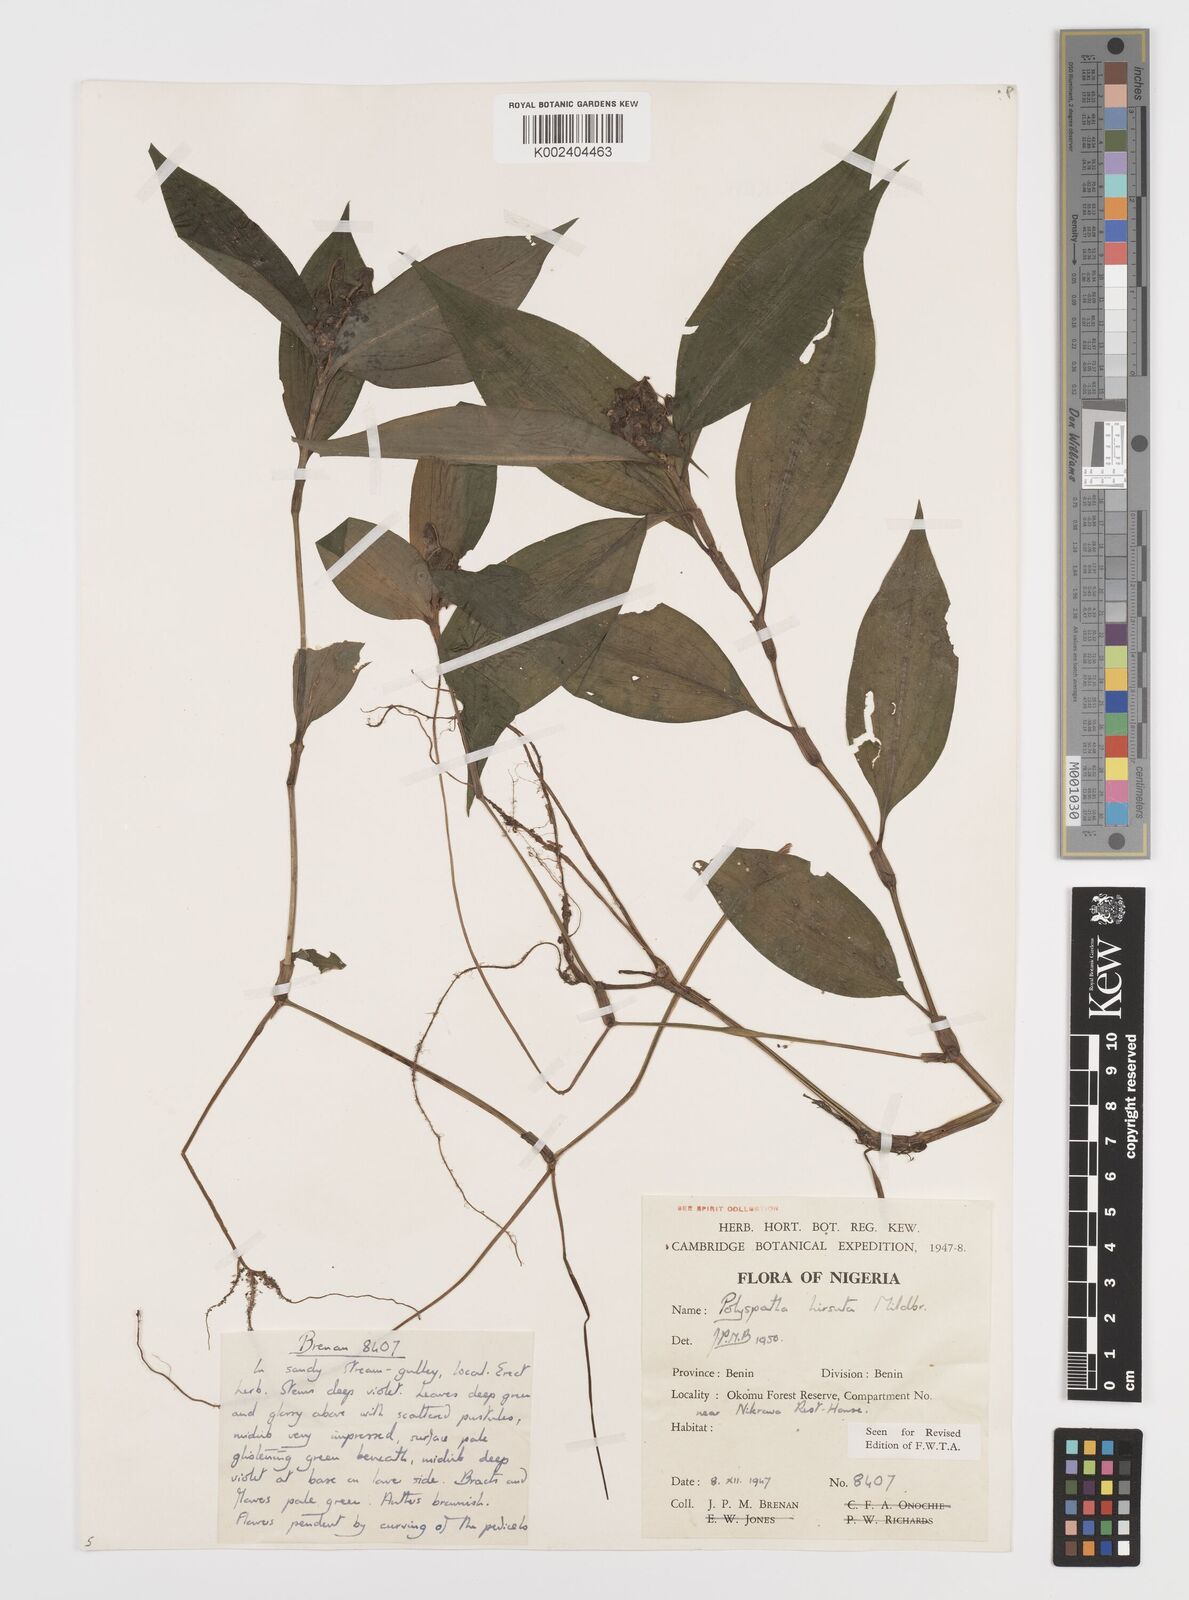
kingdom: Plantae
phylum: Tracheophyta
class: Liliopsida
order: Commelinales
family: Commelinaceae
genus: Polyspatha
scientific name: Polyspatha hirsuta
